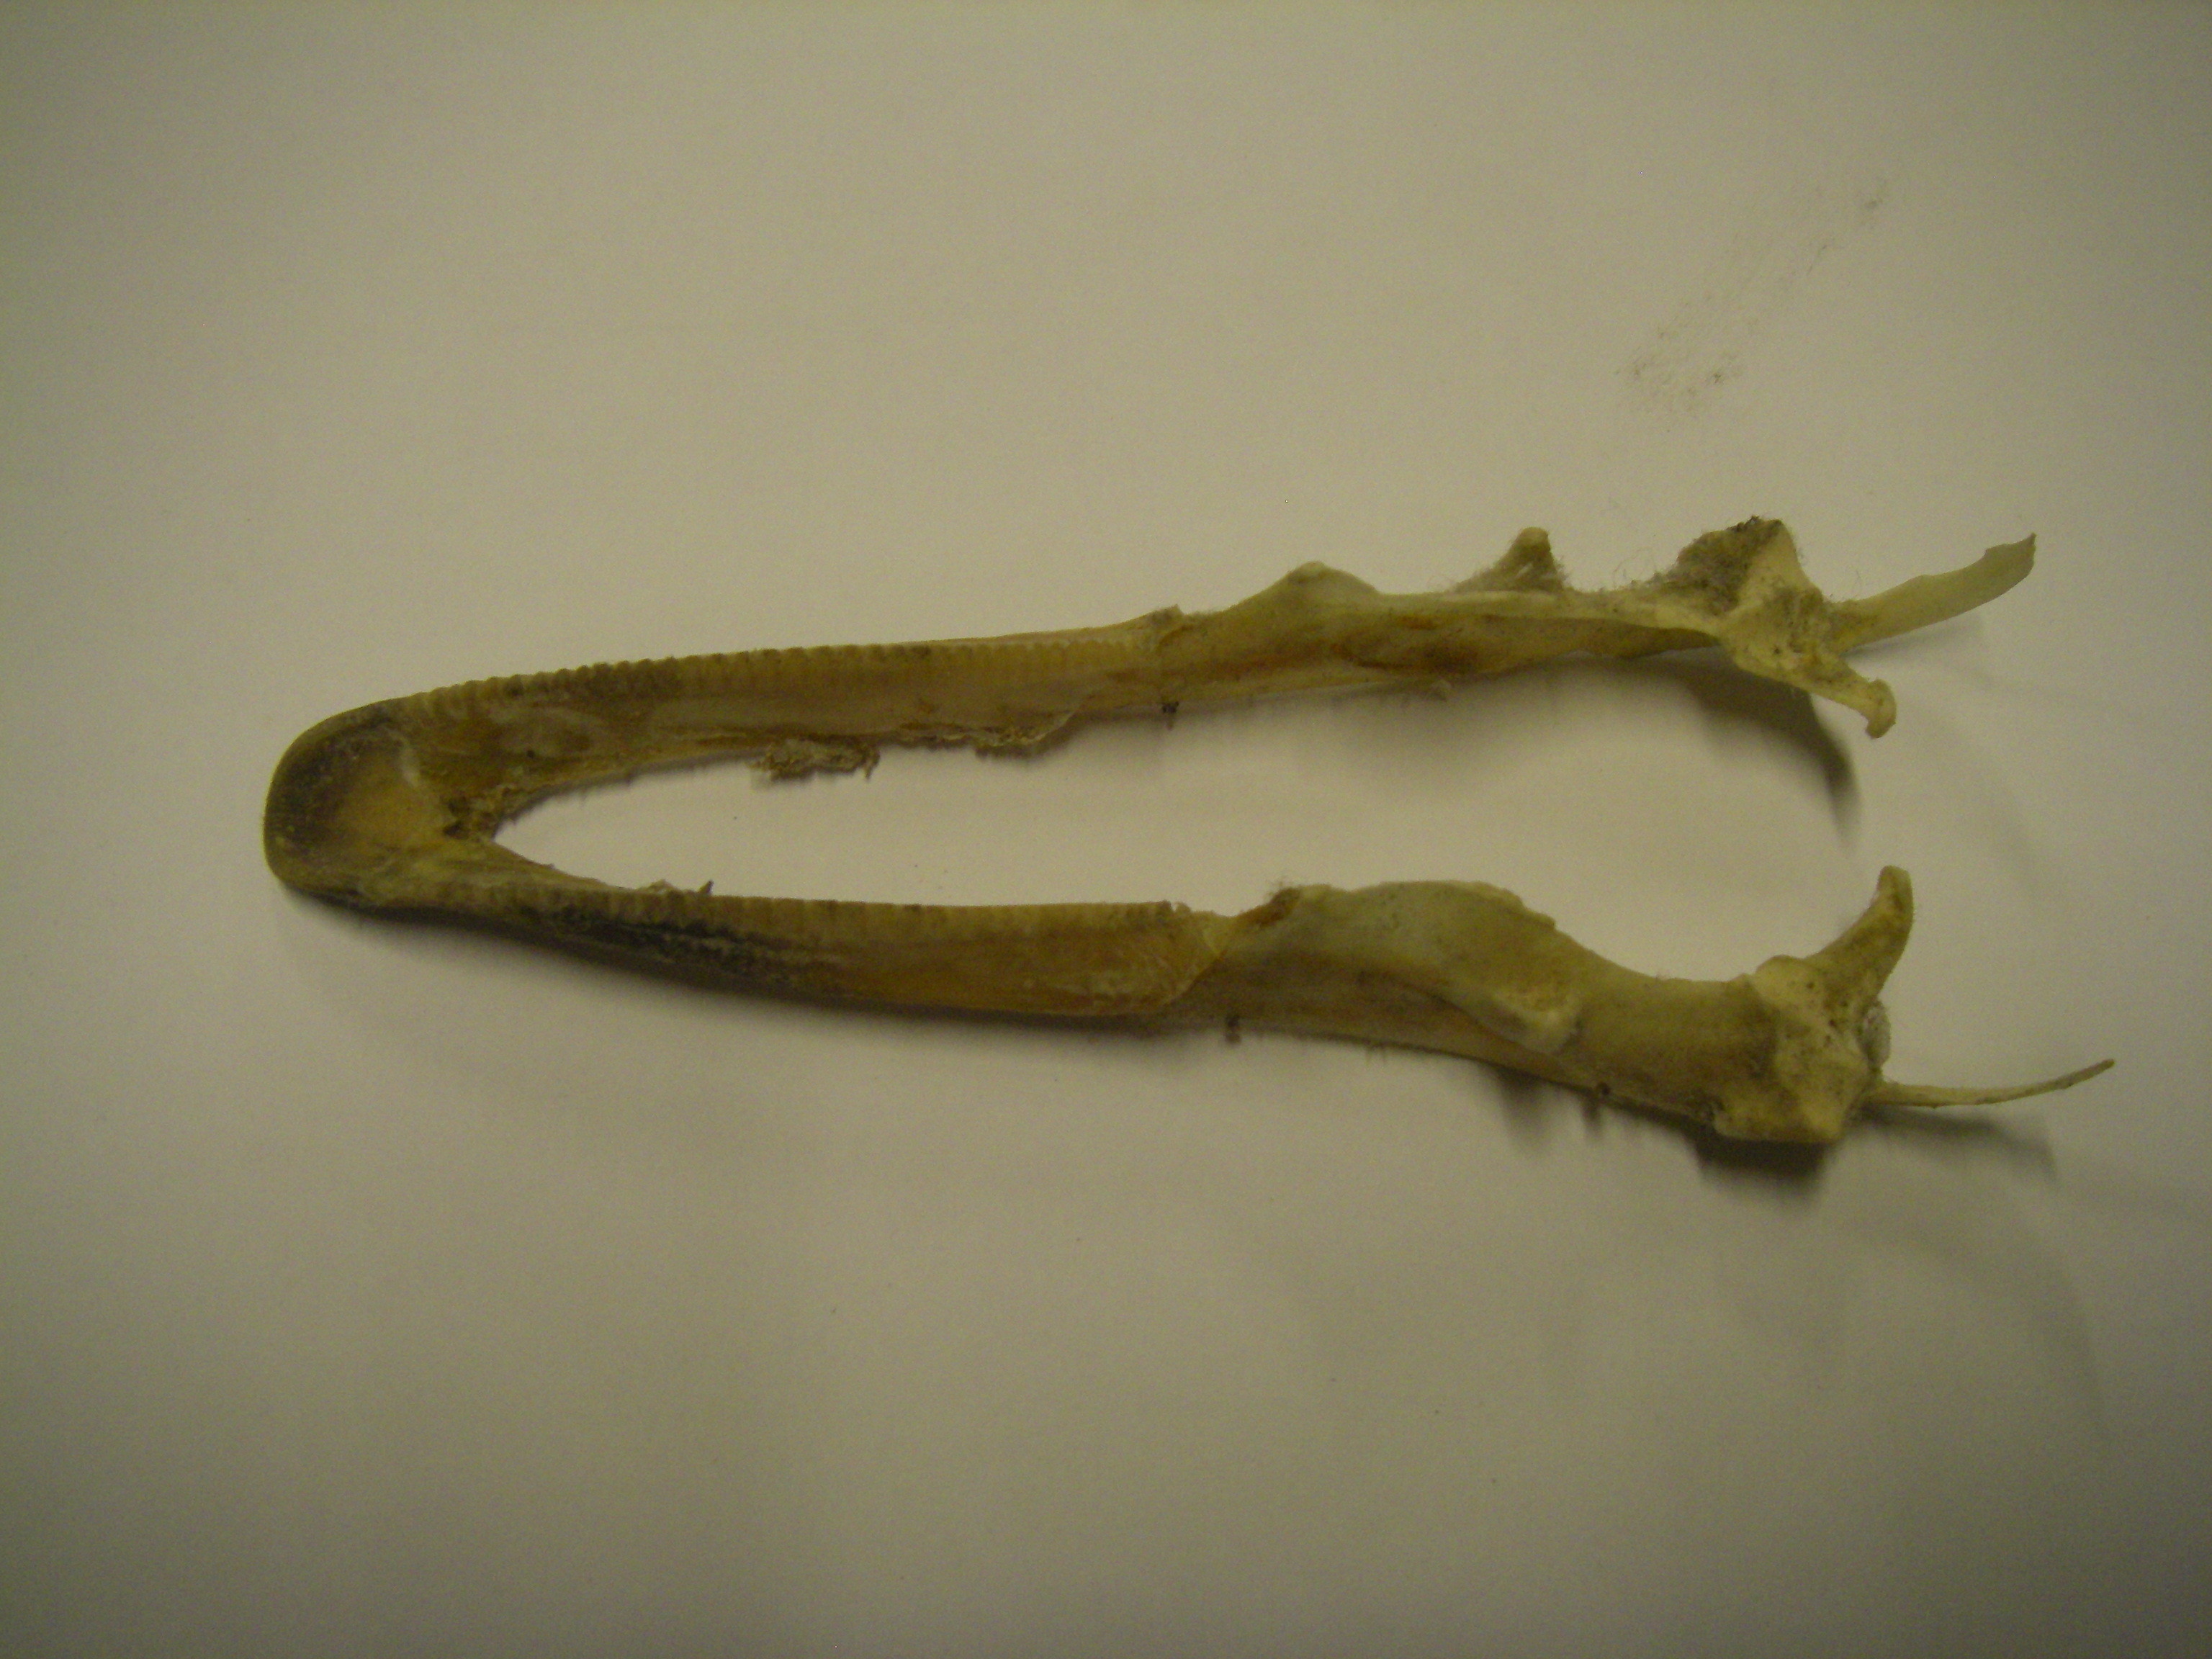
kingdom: Animalia
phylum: Chordata
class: Aves
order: Anseriformes
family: Anatidae
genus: Anser
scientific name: Anser anser
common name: Greylag goose
